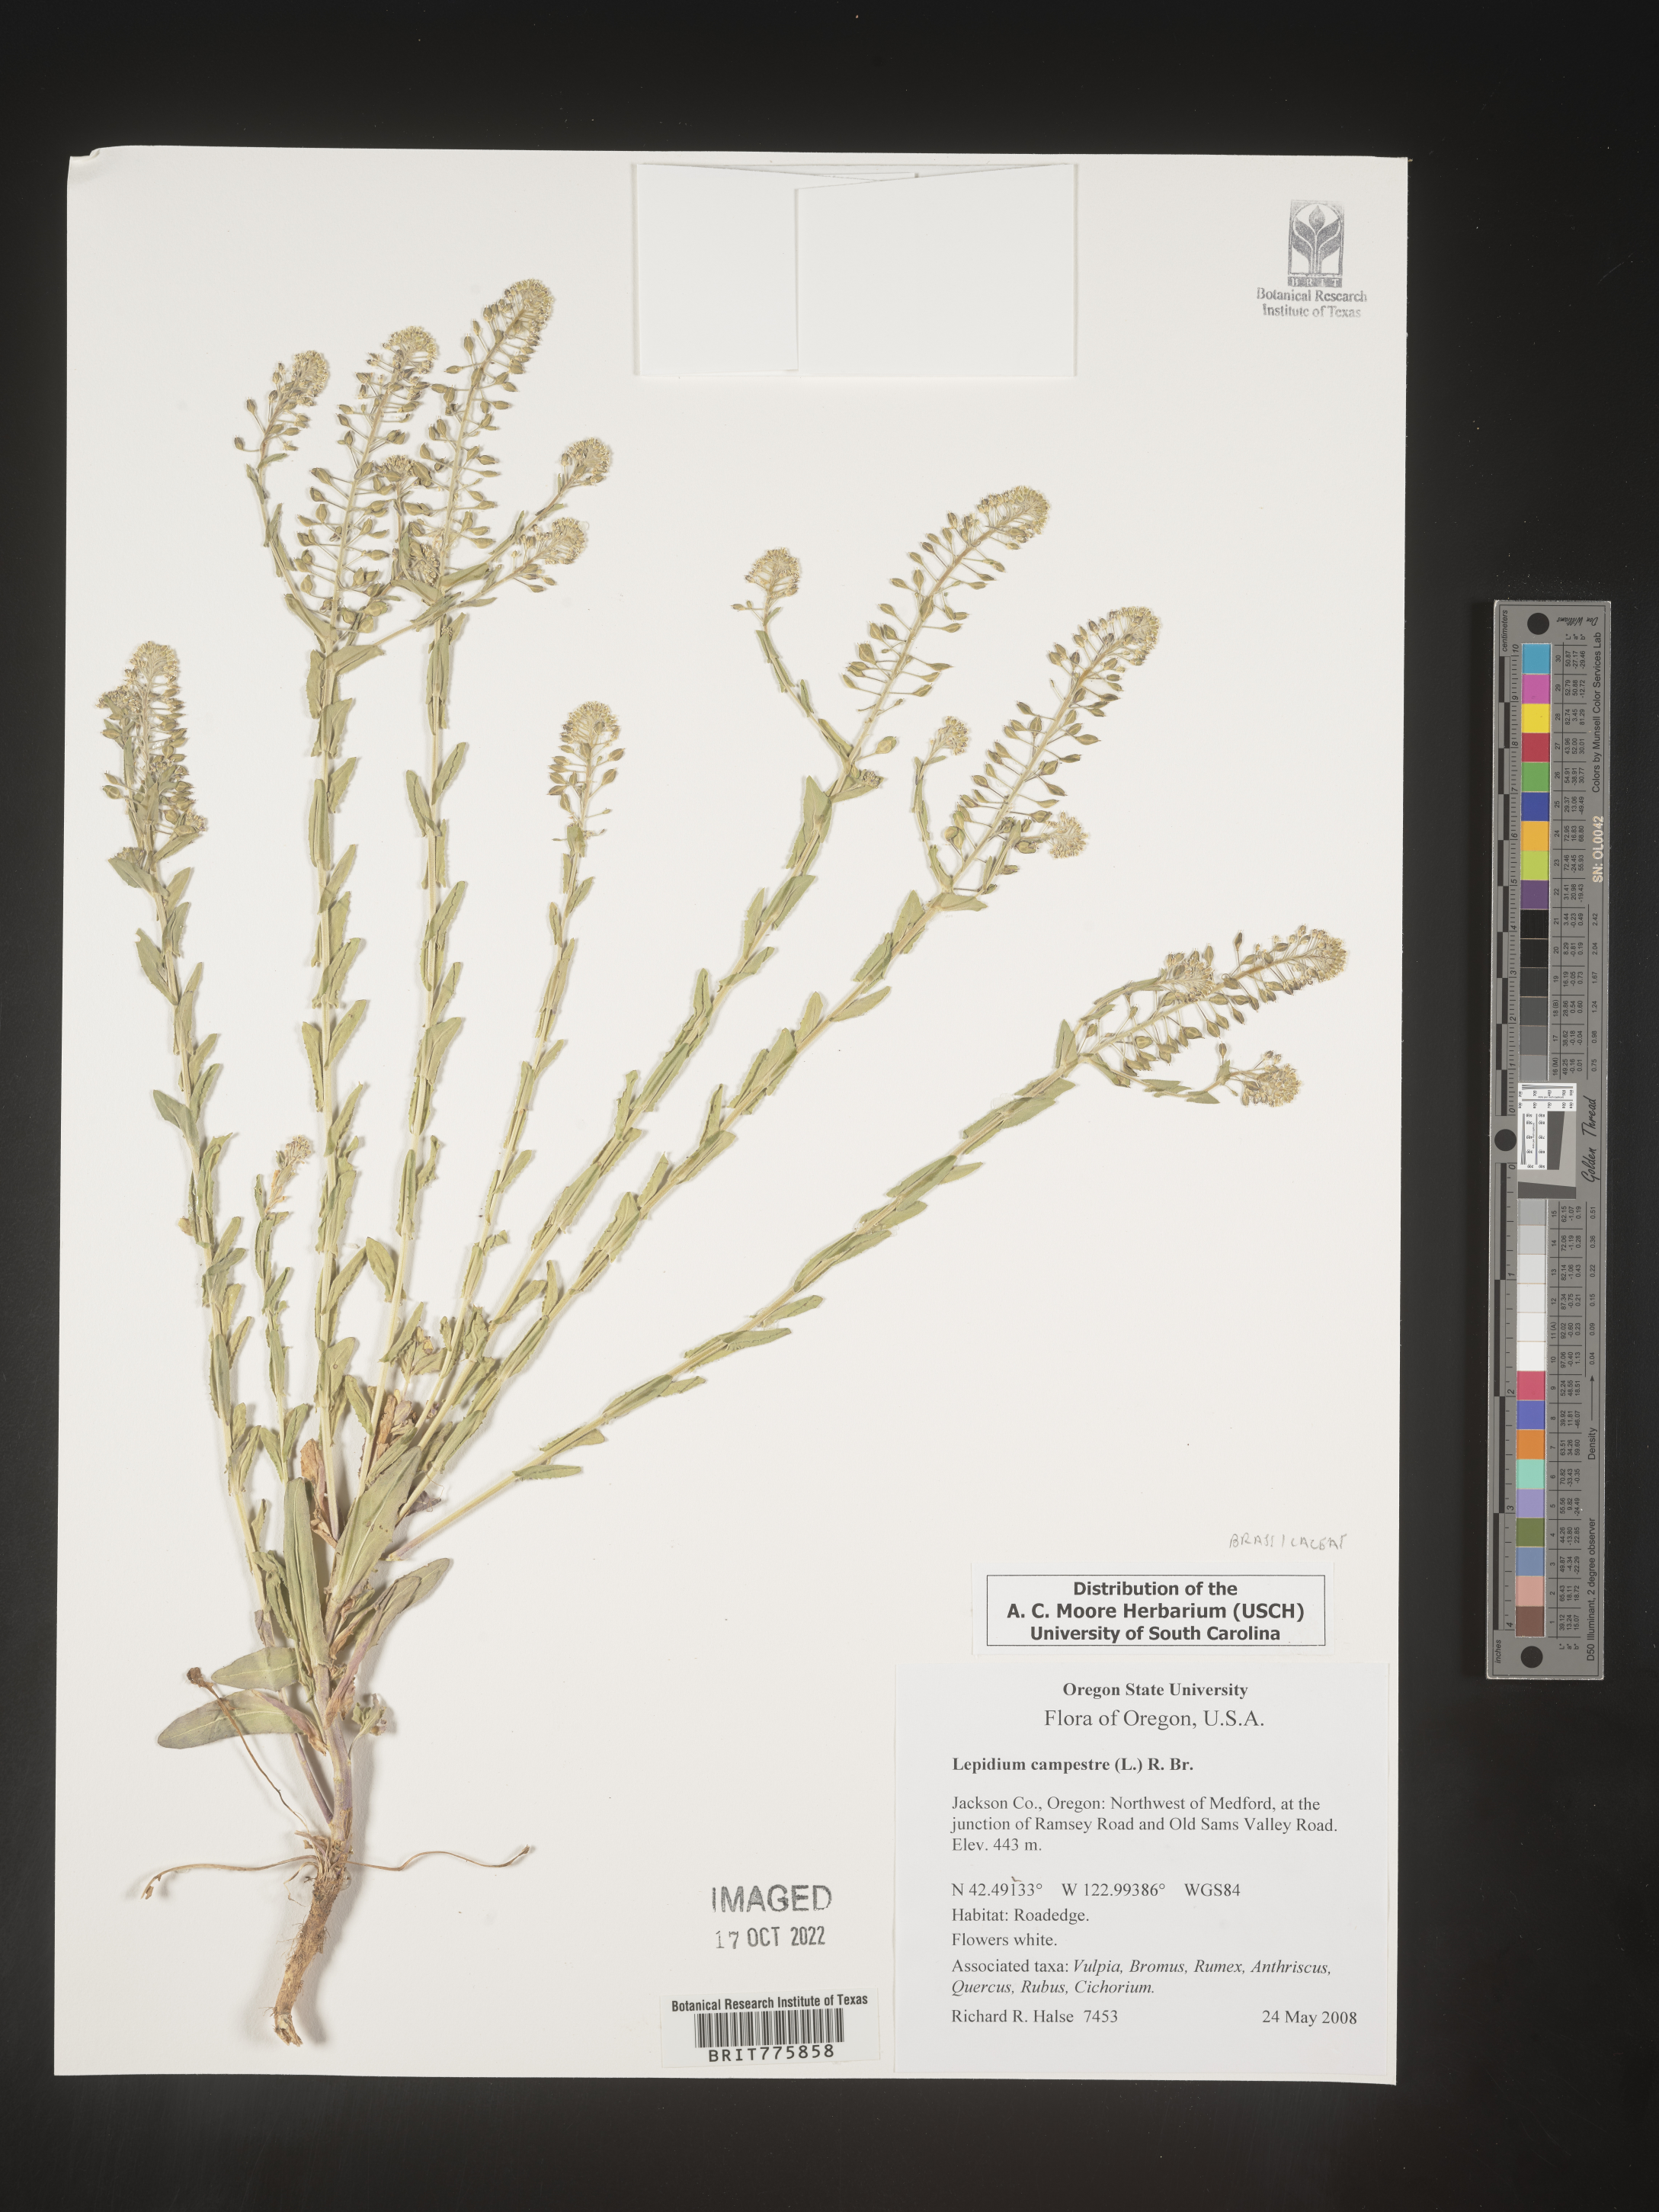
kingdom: Plantae
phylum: Tracheophyta
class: Magnoliopsida
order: Brassicales
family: Brassicaceae
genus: Lepidium
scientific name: Lepidium campestre
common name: Field pepperwort
